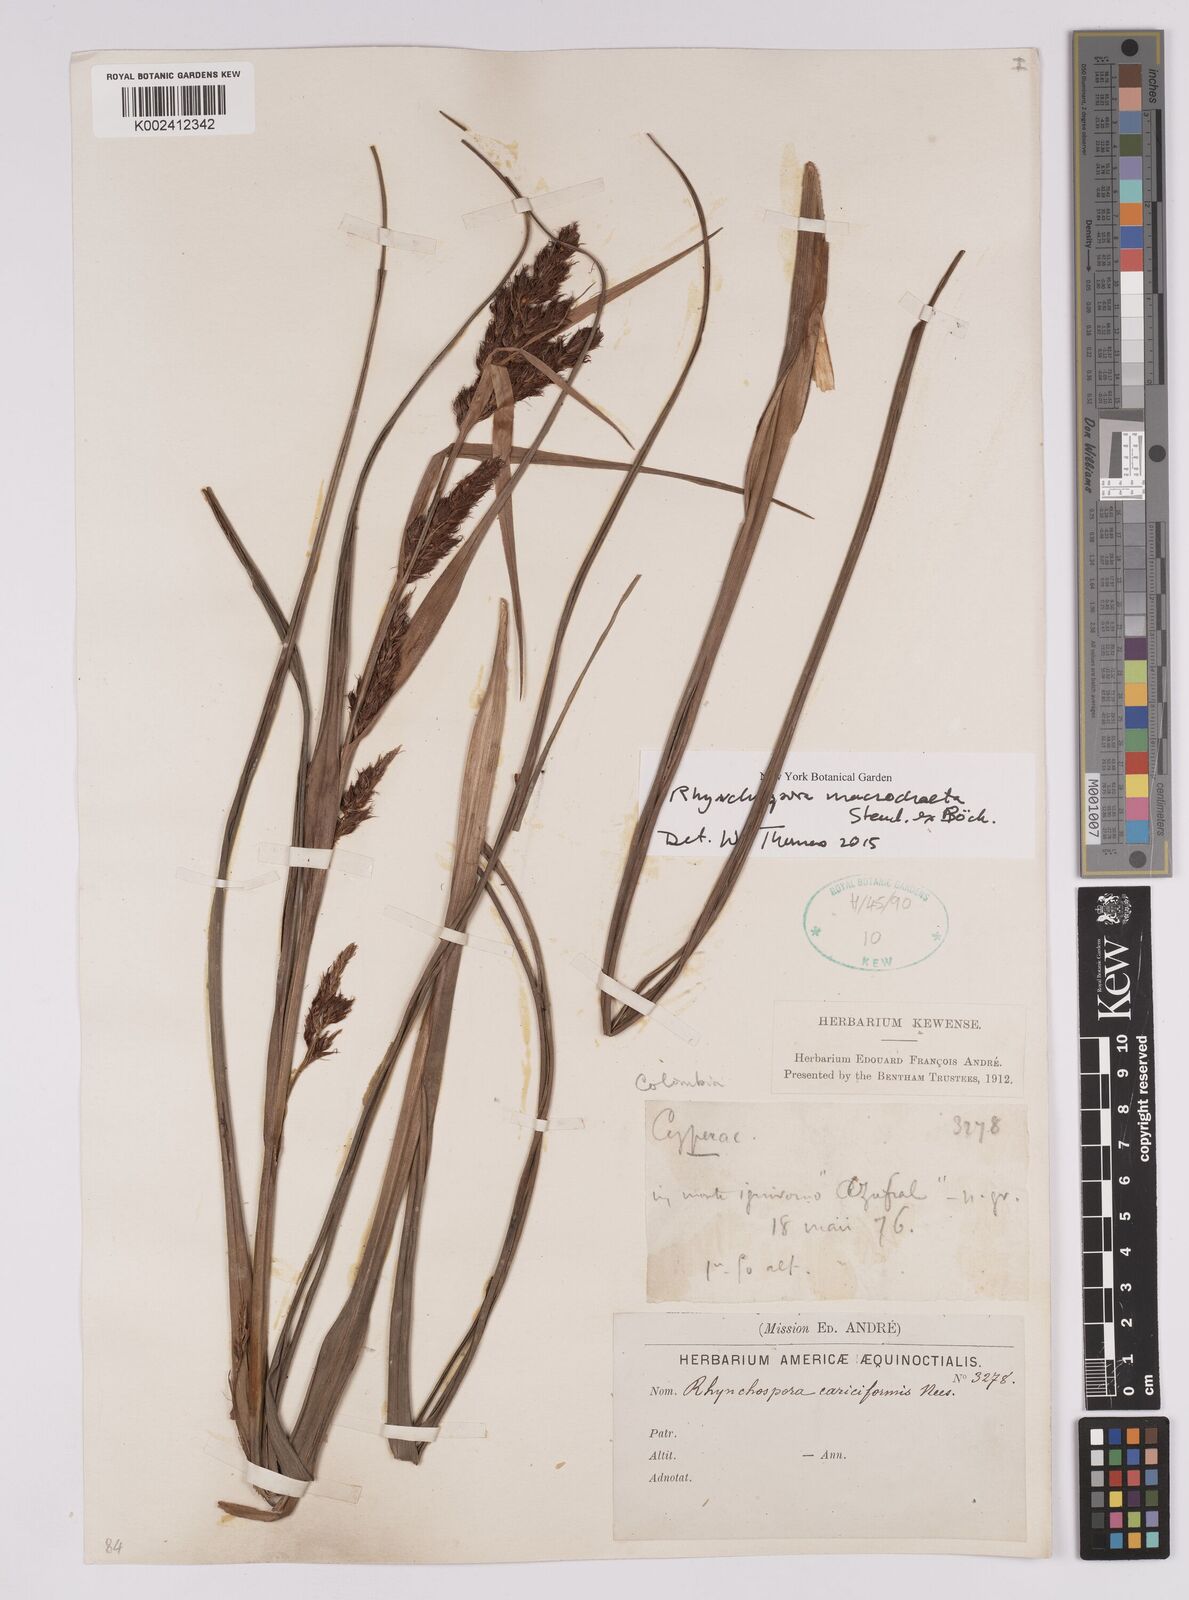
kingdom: Plantae
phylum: Tracheophyta
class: Liliopsida
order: Poales
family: Cyperaceae
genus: Rhynchospora
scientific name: Rhynchospora macrochaeta
